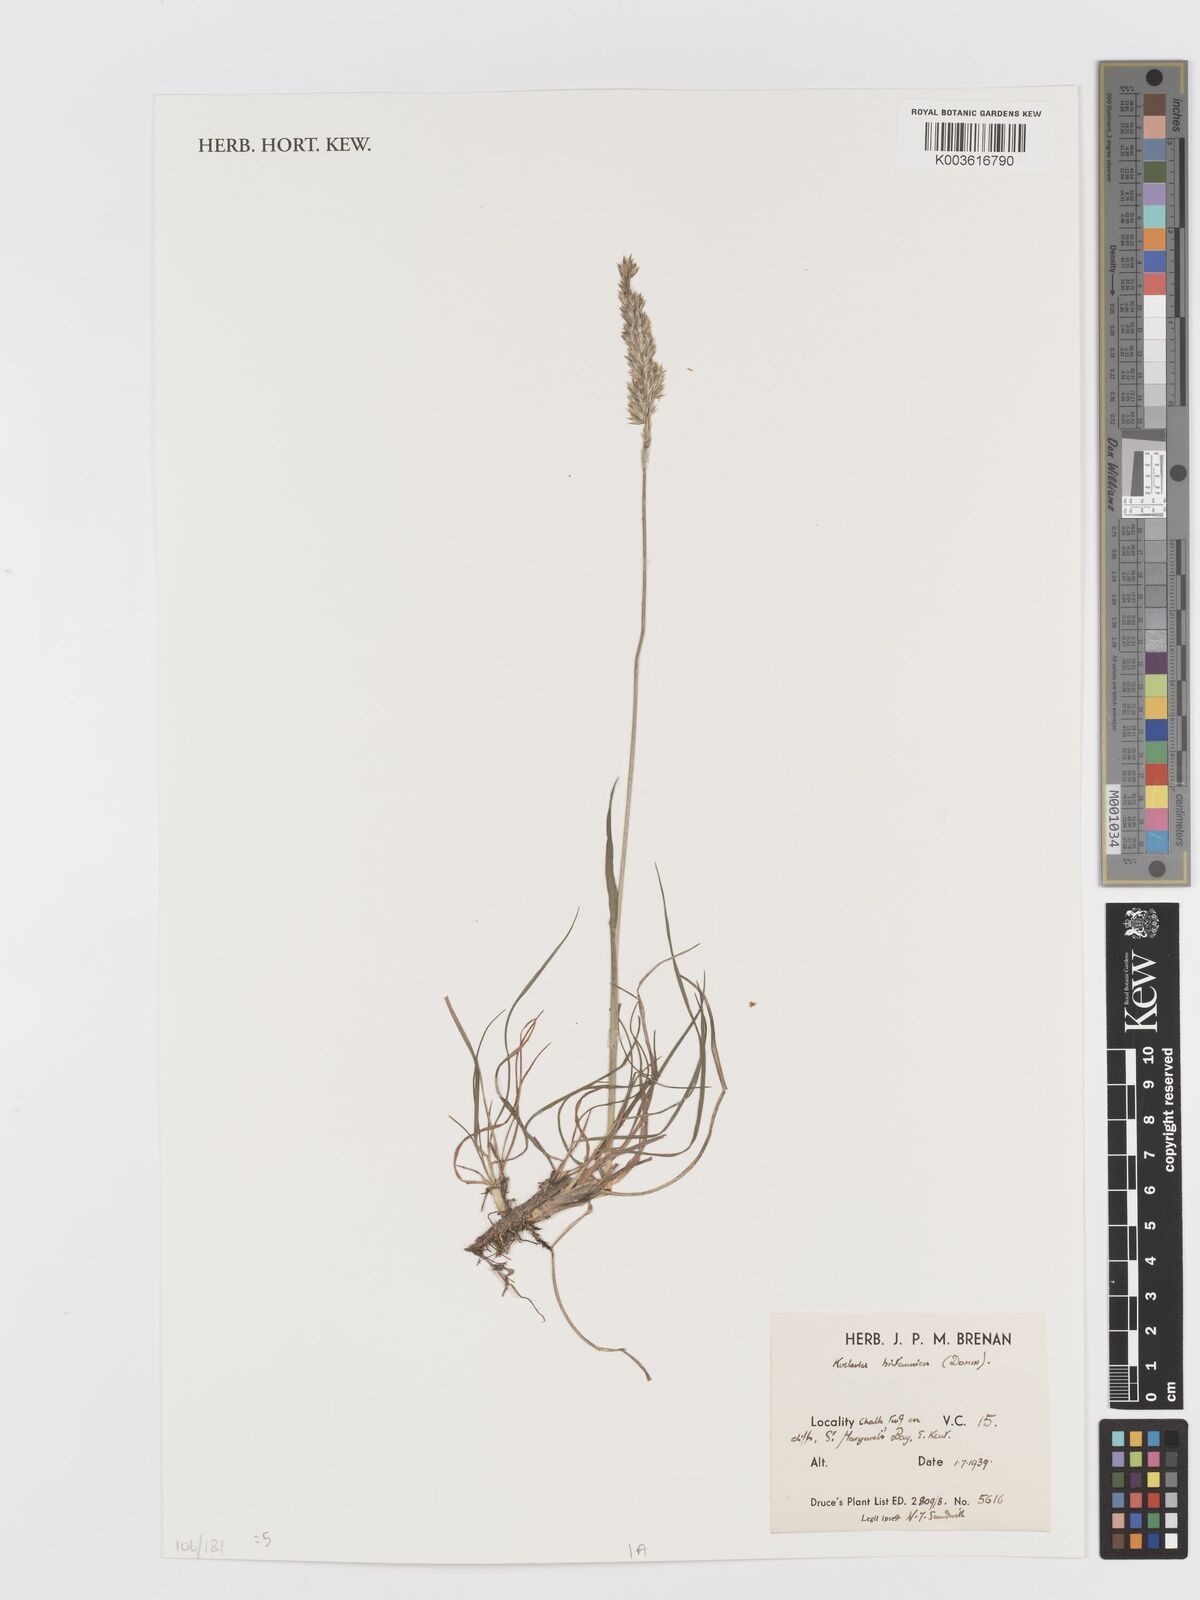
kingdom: Plantae
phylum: Tracheophyta
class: Liliopsida
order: Poales
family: Poaceae
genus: Koeleria
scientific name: Koeleria macrantha
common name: Crested hair-grass
